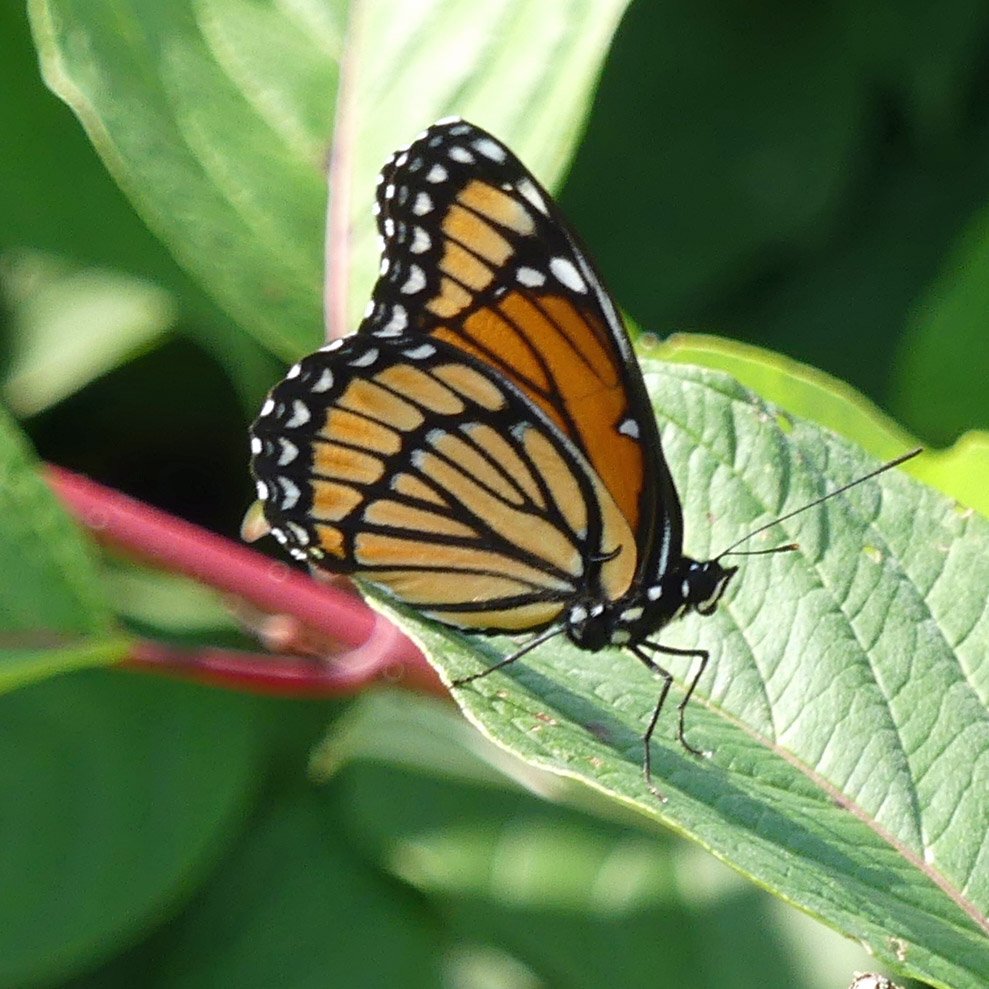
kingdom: Animalia
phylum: Arthropoda
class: Insecta
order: Lepidoptera
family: Nymphalidae
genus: Limenitis
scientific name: Limenitis archippus
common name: Viceroy
